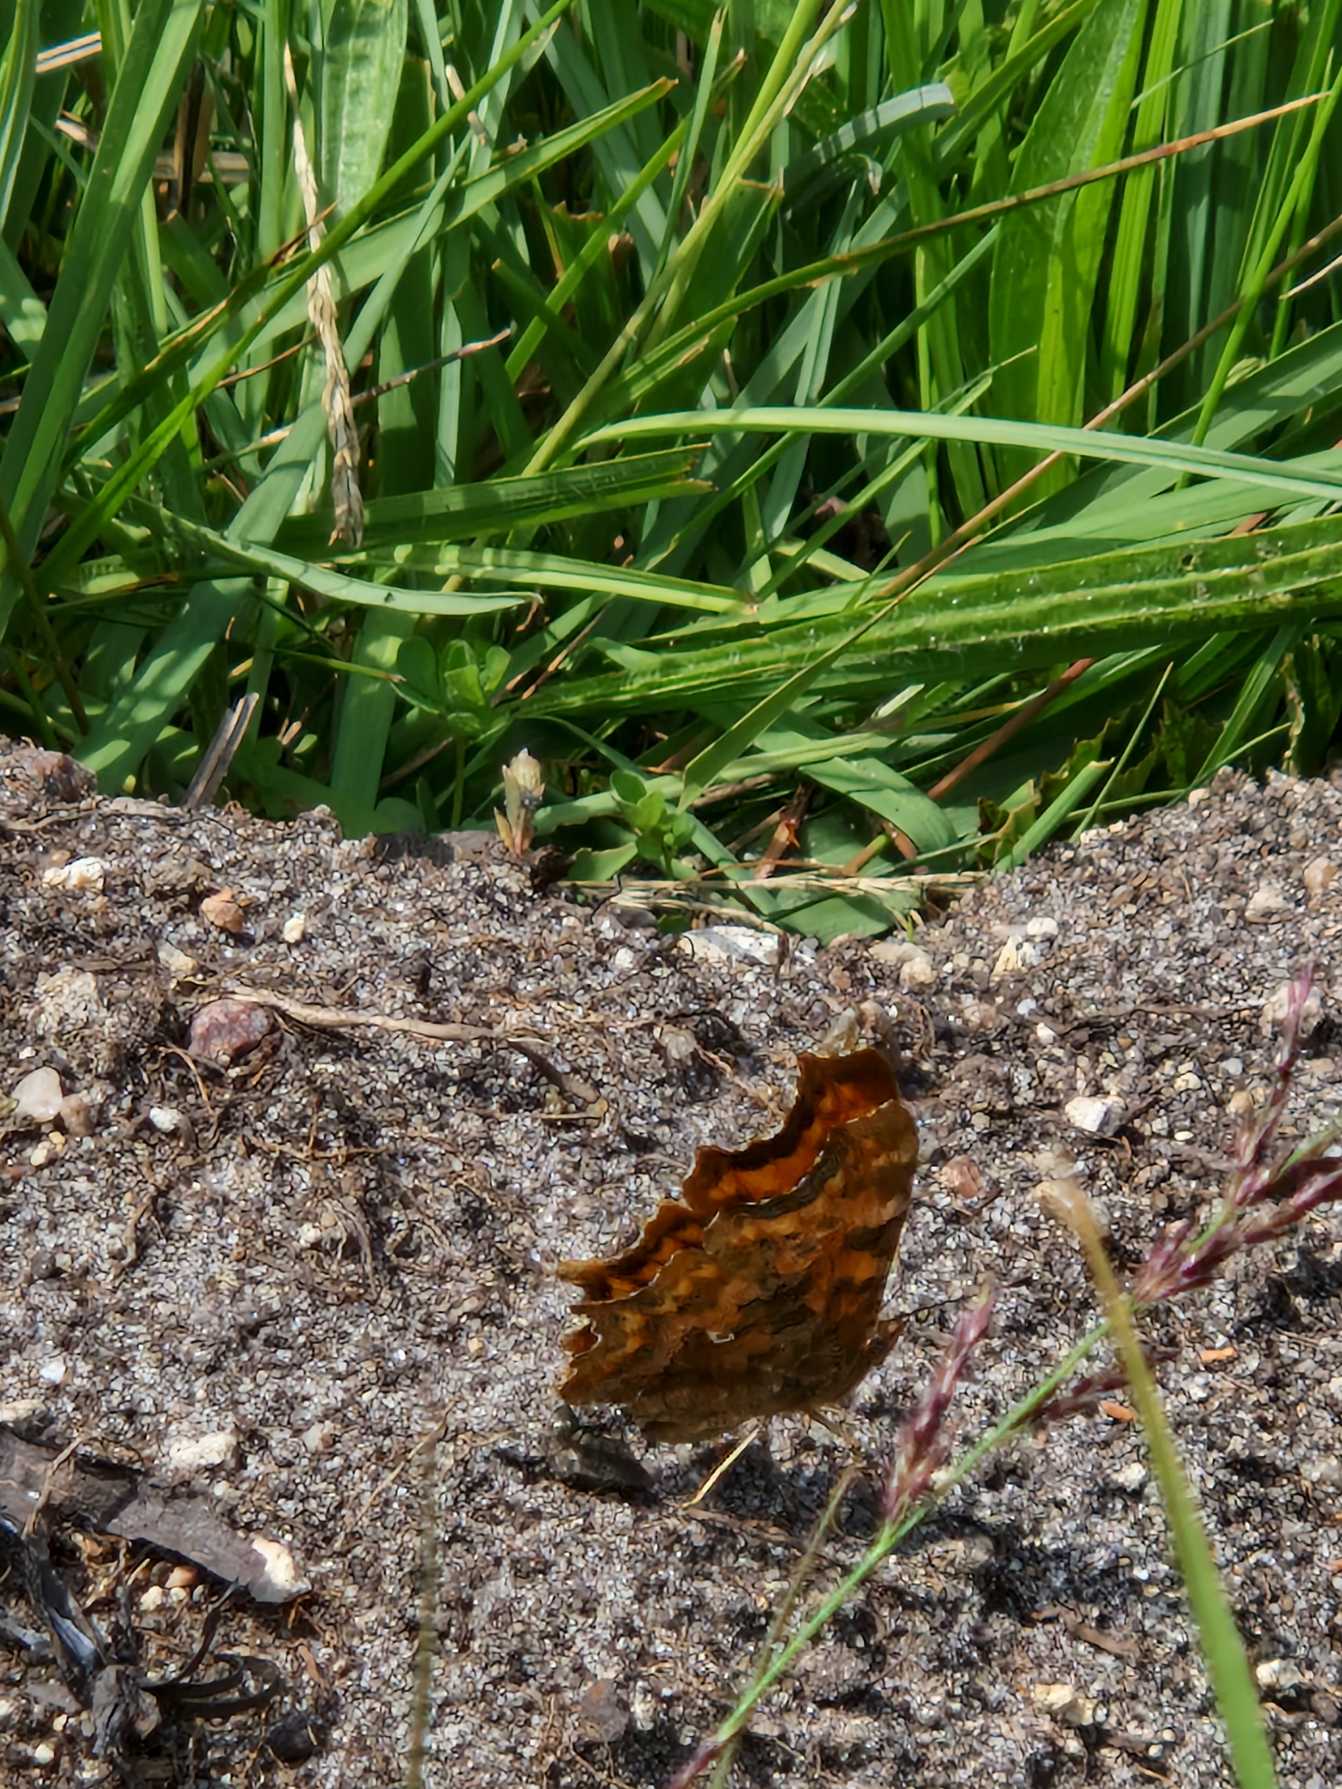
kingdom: Animalia
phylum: Arthropoda
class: Insecta
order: Lepidoptera
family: Nymphalidae
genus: Polygonia
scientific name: Polygonia c-album
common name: Det hvide C
